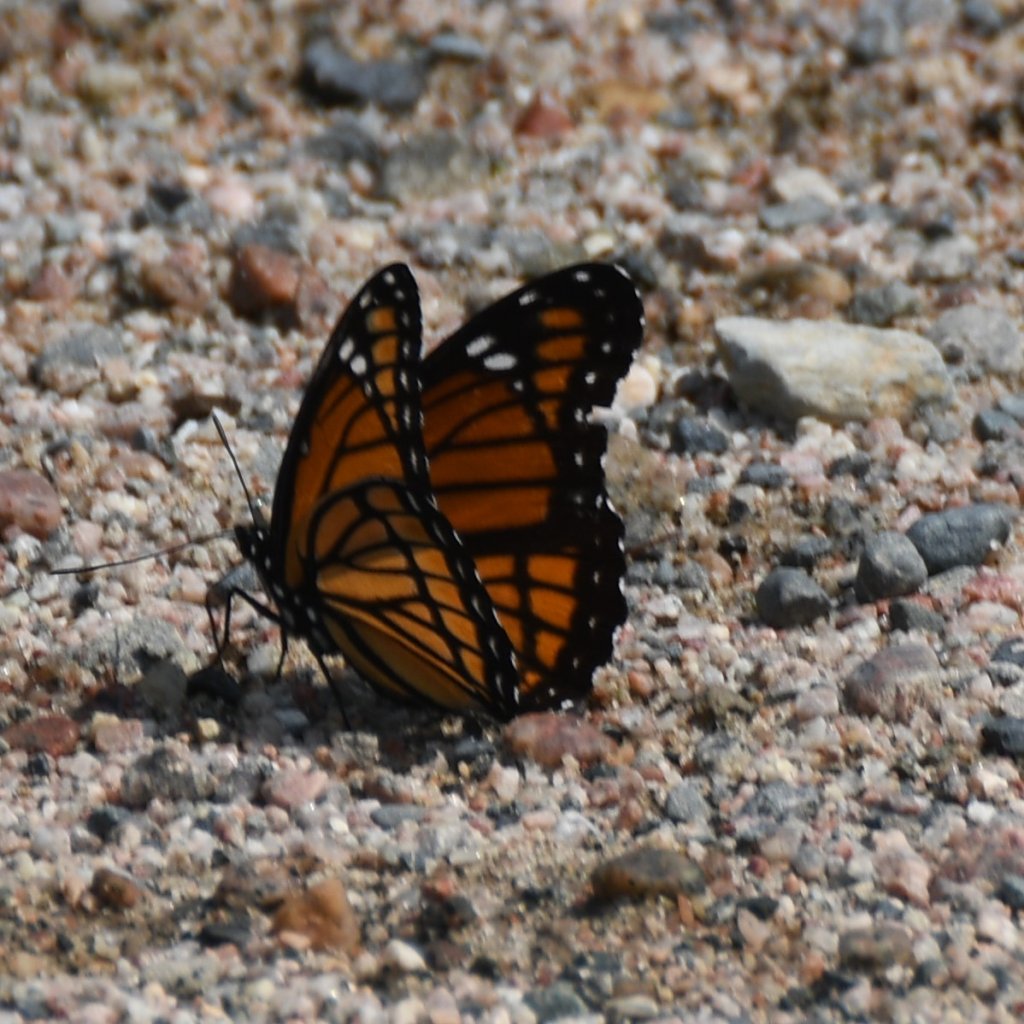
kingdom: Animalia
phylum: Arthropoda
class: Insecta
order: Lepidoptera
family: Nymphalidae
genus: Limenitis
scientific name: Limenitis archippus
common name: Viceroy
